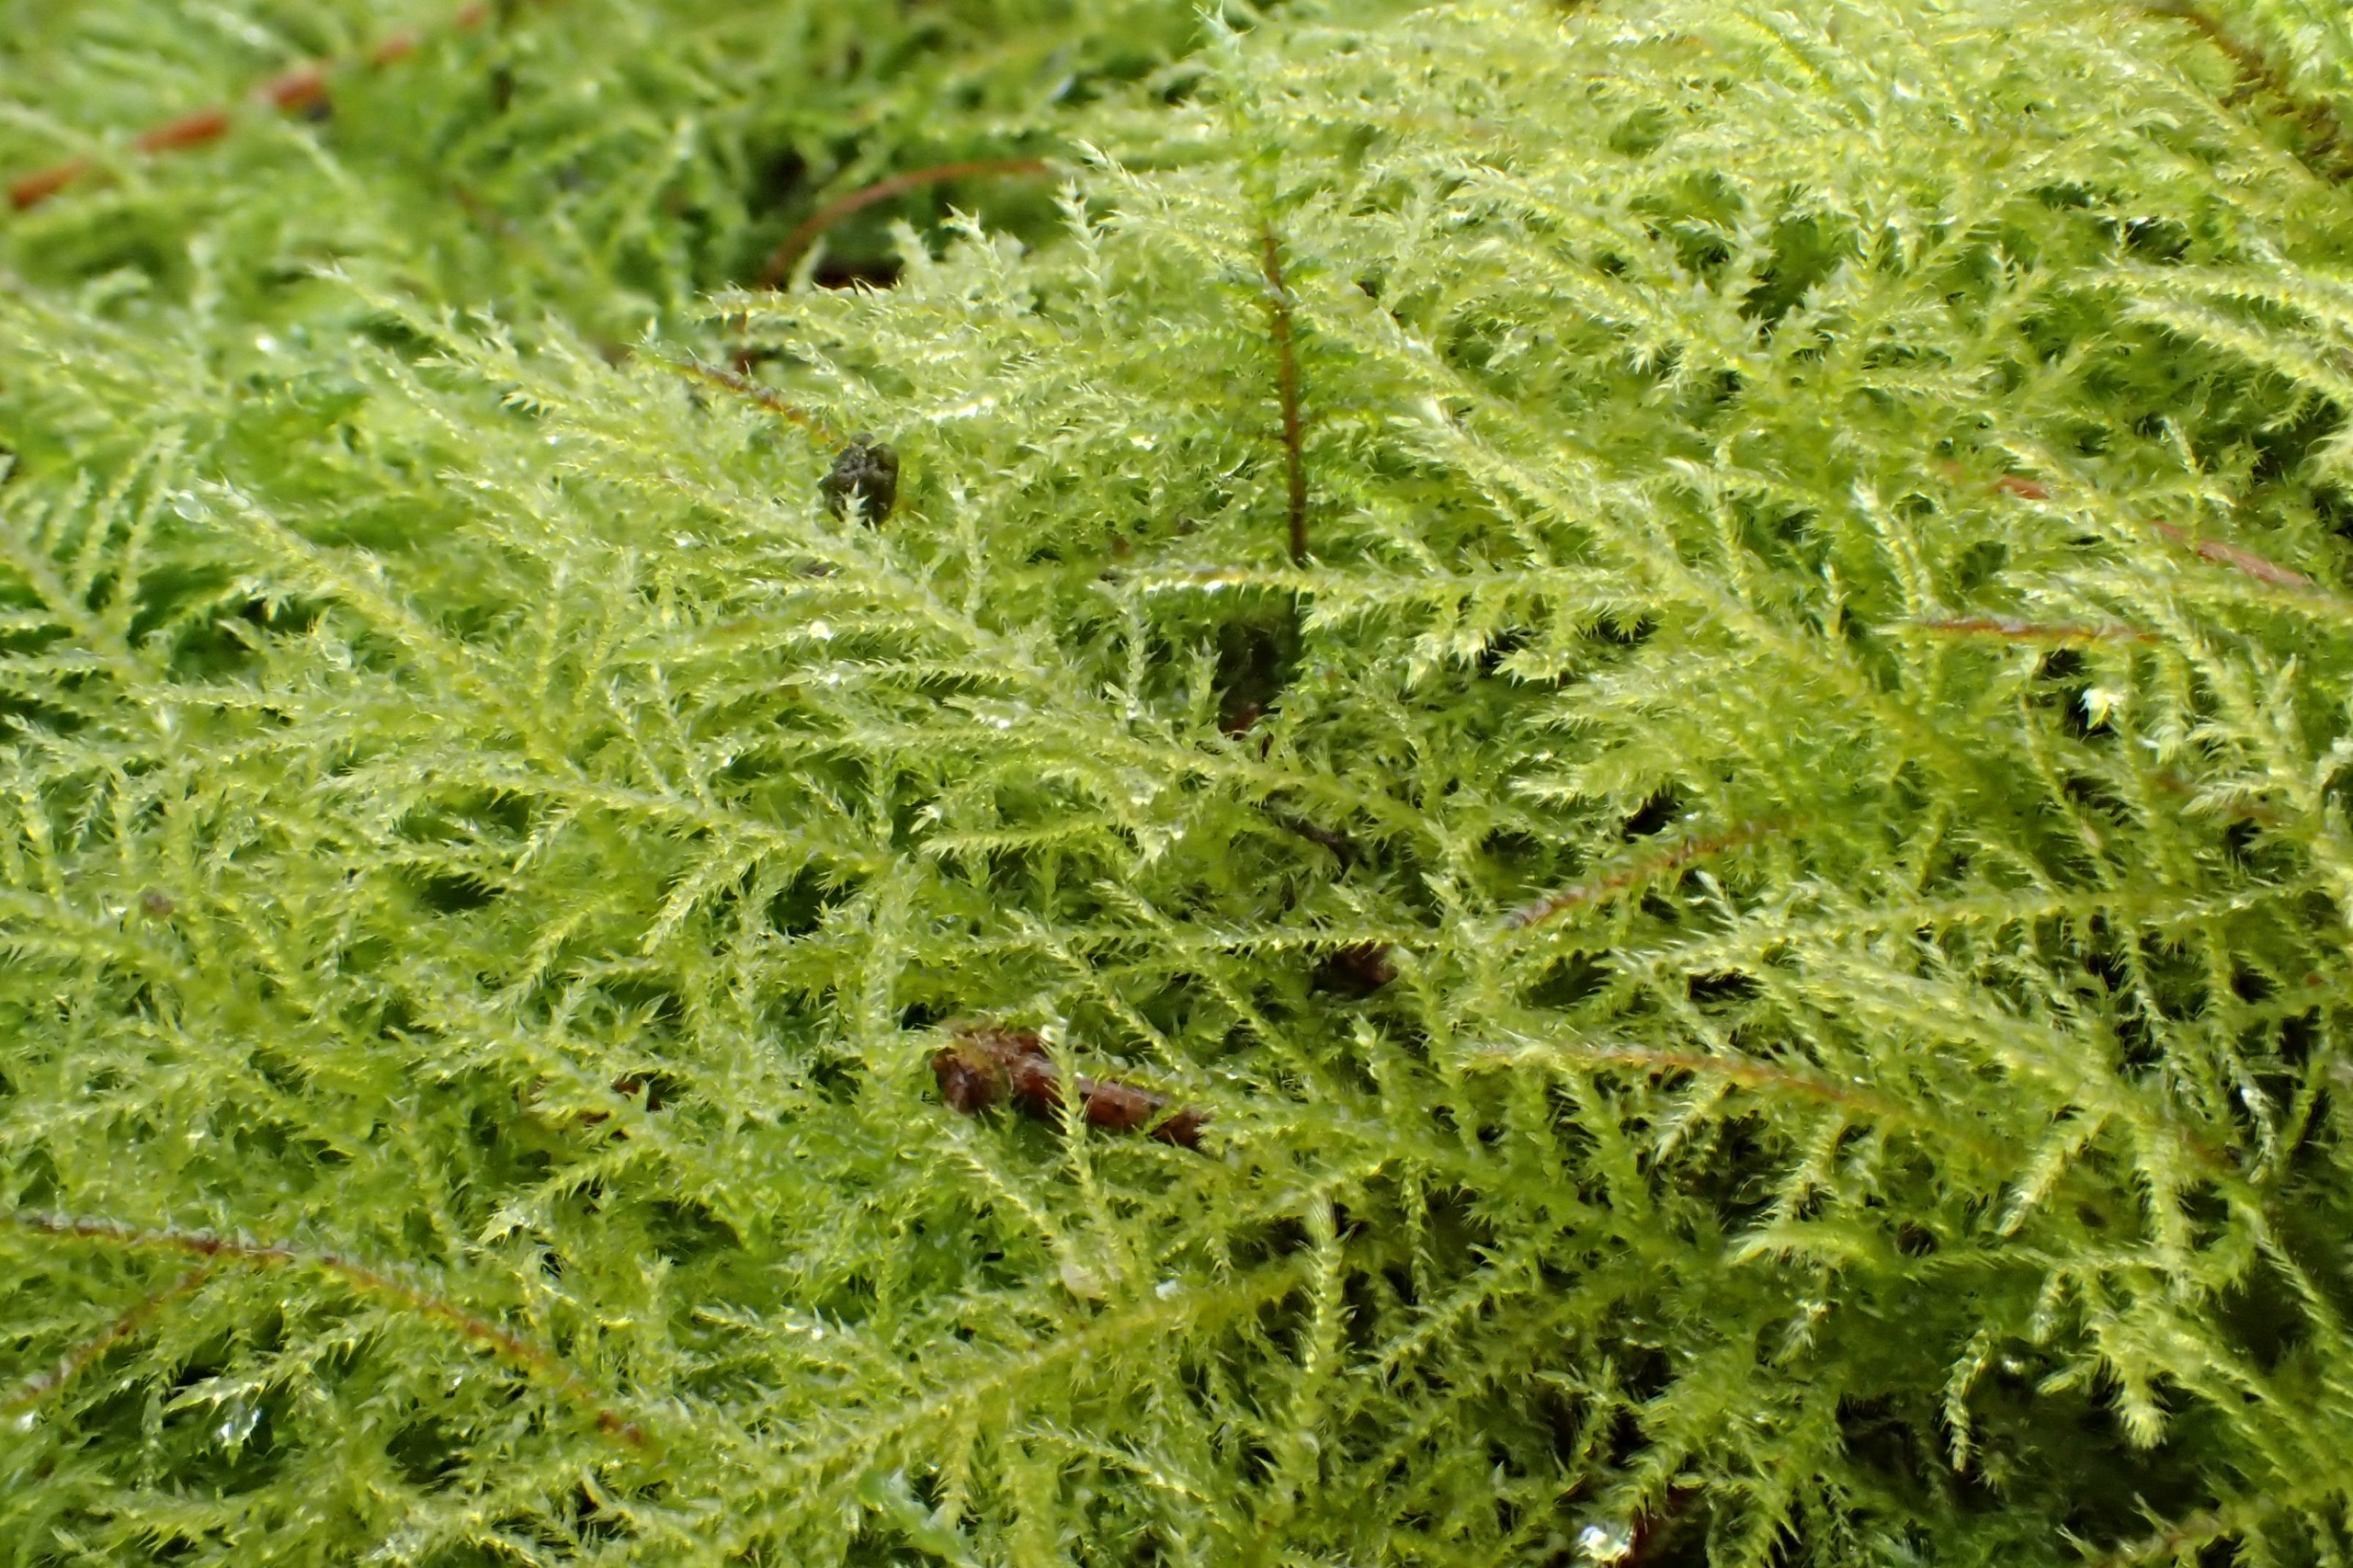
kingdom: Plantae
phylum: Bryophyta
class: Bryopsida
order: Hypnales
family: Brachytheciaceae
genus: Kindbergia
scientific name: Kindbergia praelonga
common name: Forskelligbladet vortetand
